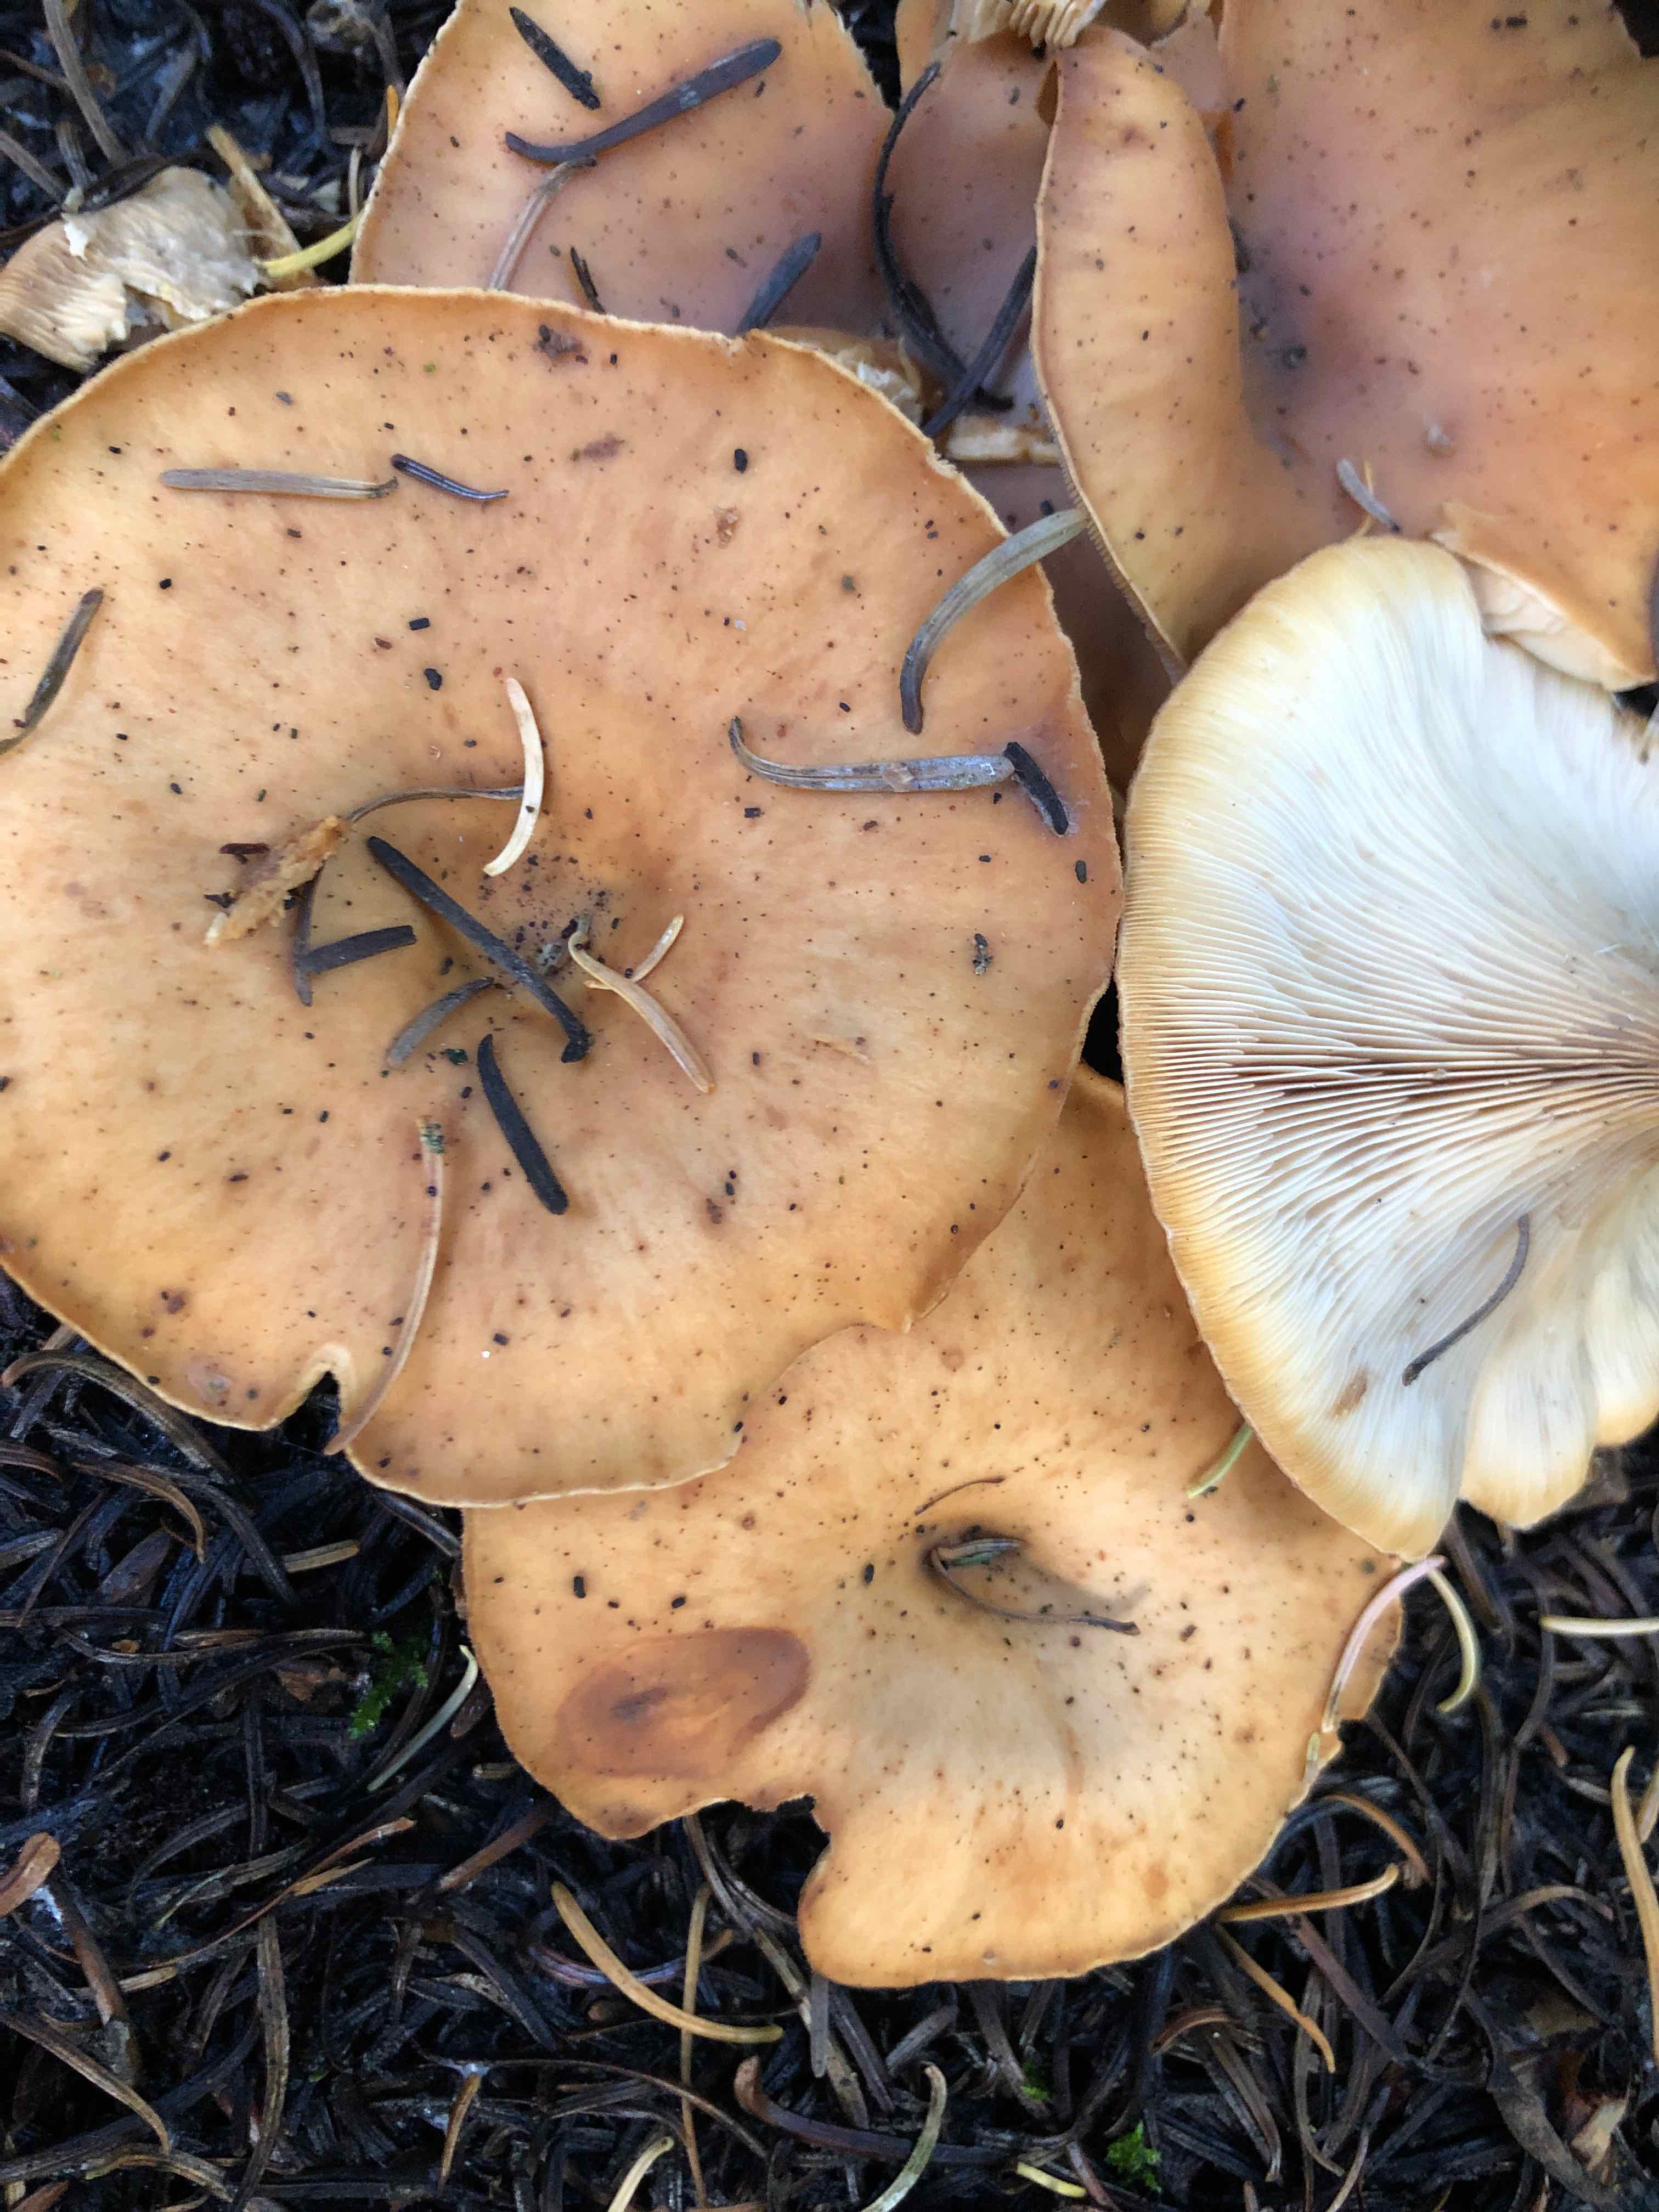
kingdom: Fungi
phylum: Basidiomycota
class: Agaricomycetes
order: Agaricales
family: Tricholomataceae
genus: Paralepista
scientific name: Paralepista flaccida
